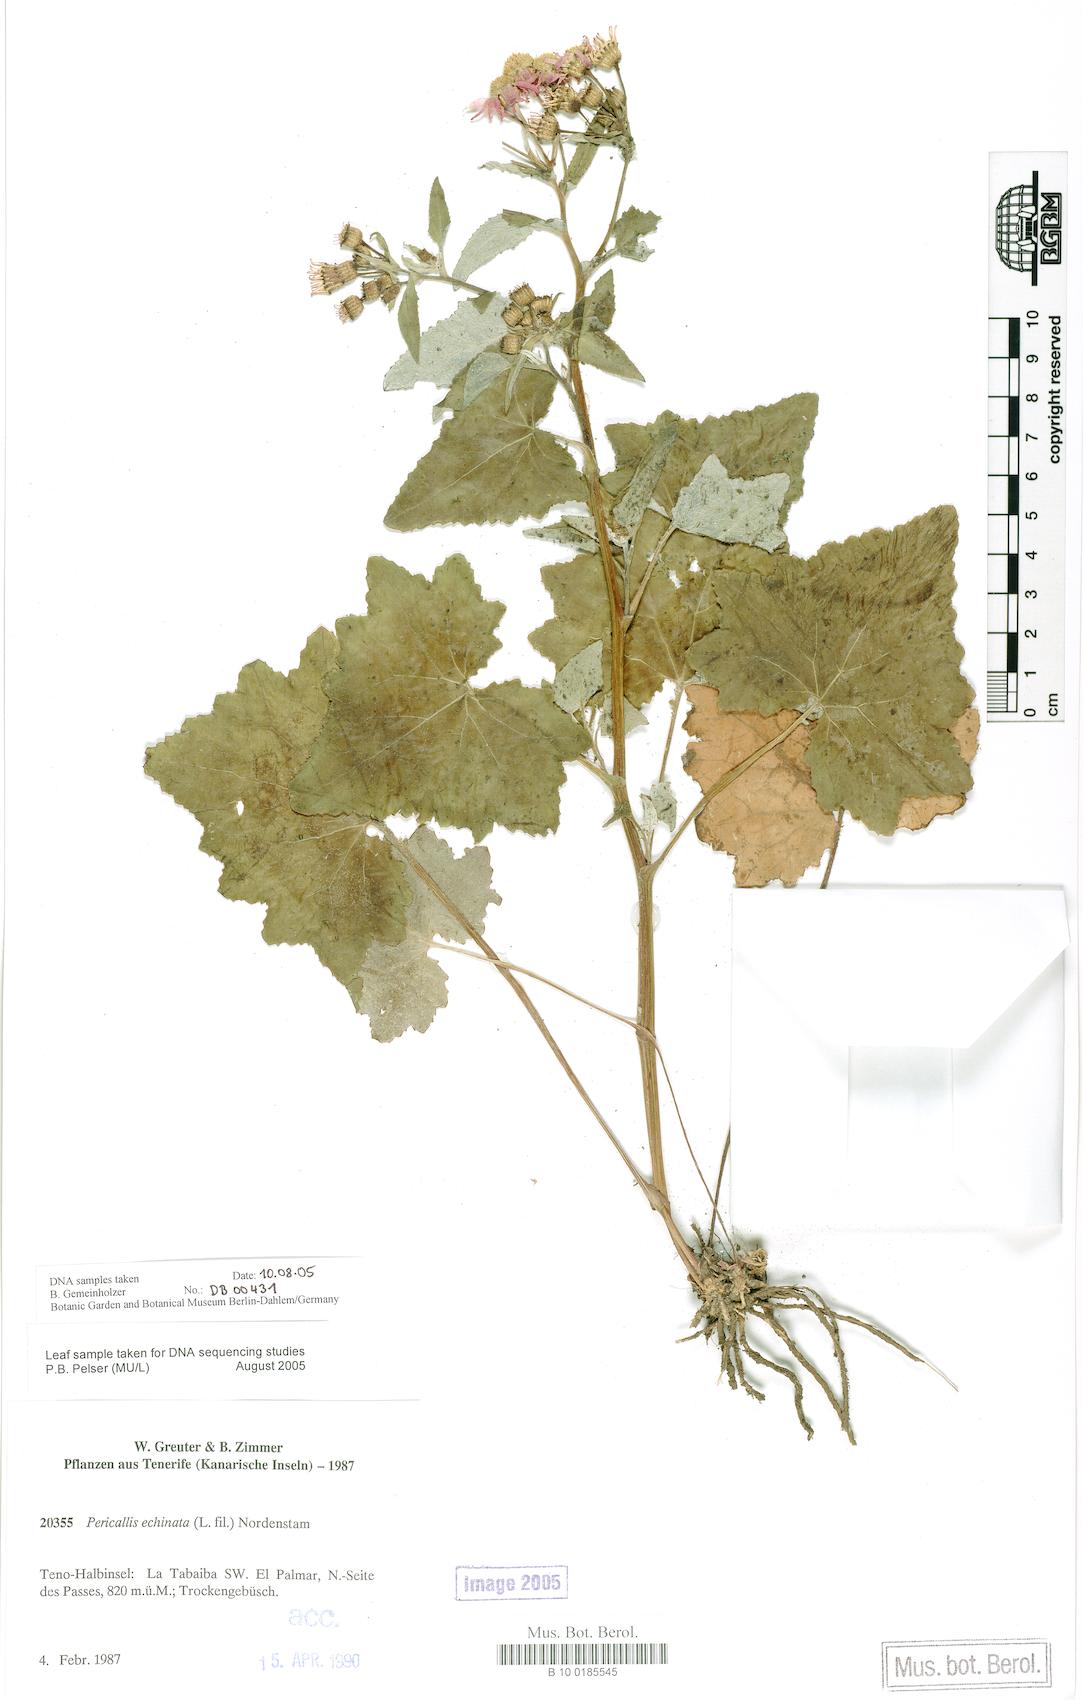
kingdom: Plantae
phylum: Tracheophyta
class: Magnoliopsida
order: Asterales
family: Asteraceae
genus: Pericallis
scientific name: Pericallis echinata
